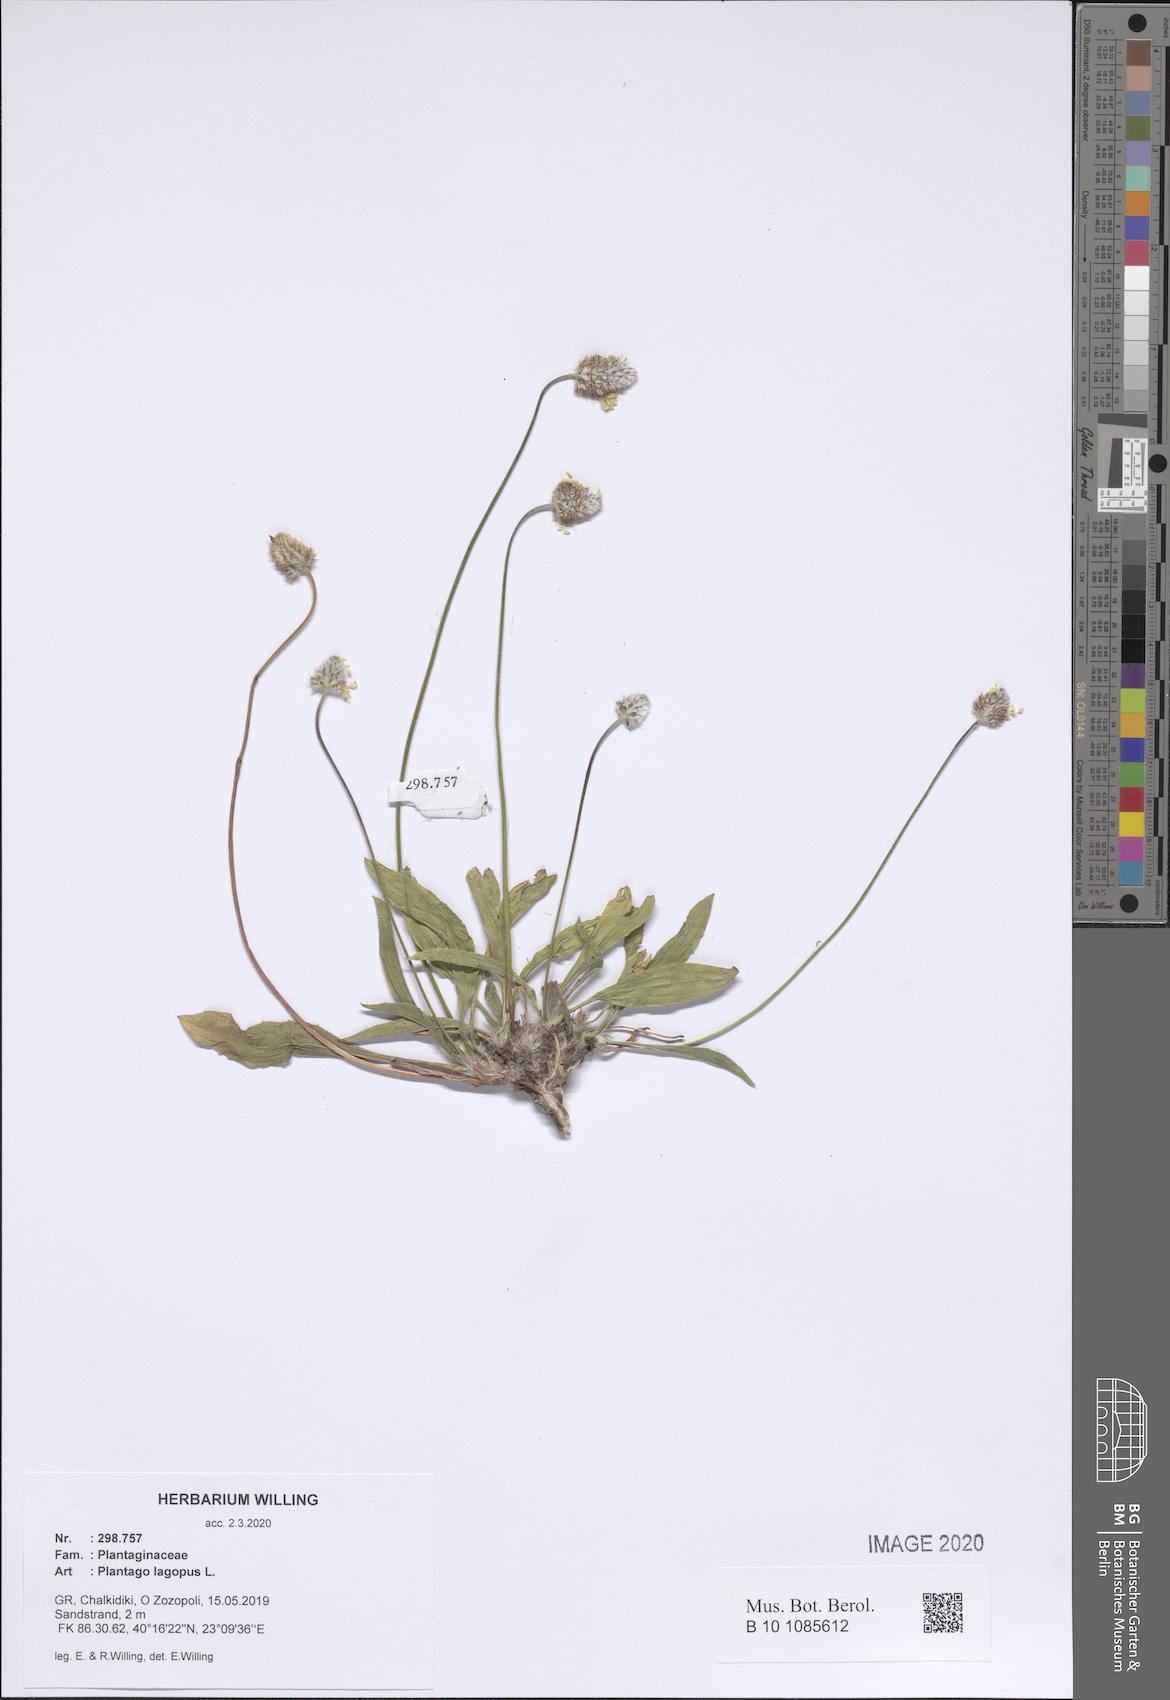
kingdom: Plantae
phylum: Tracheophyta
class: Magnoliopsida
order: Lamiales
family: Plantaginaceae
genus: Plantago
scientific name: Plantago lagopus
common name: Hare-foot plantain
